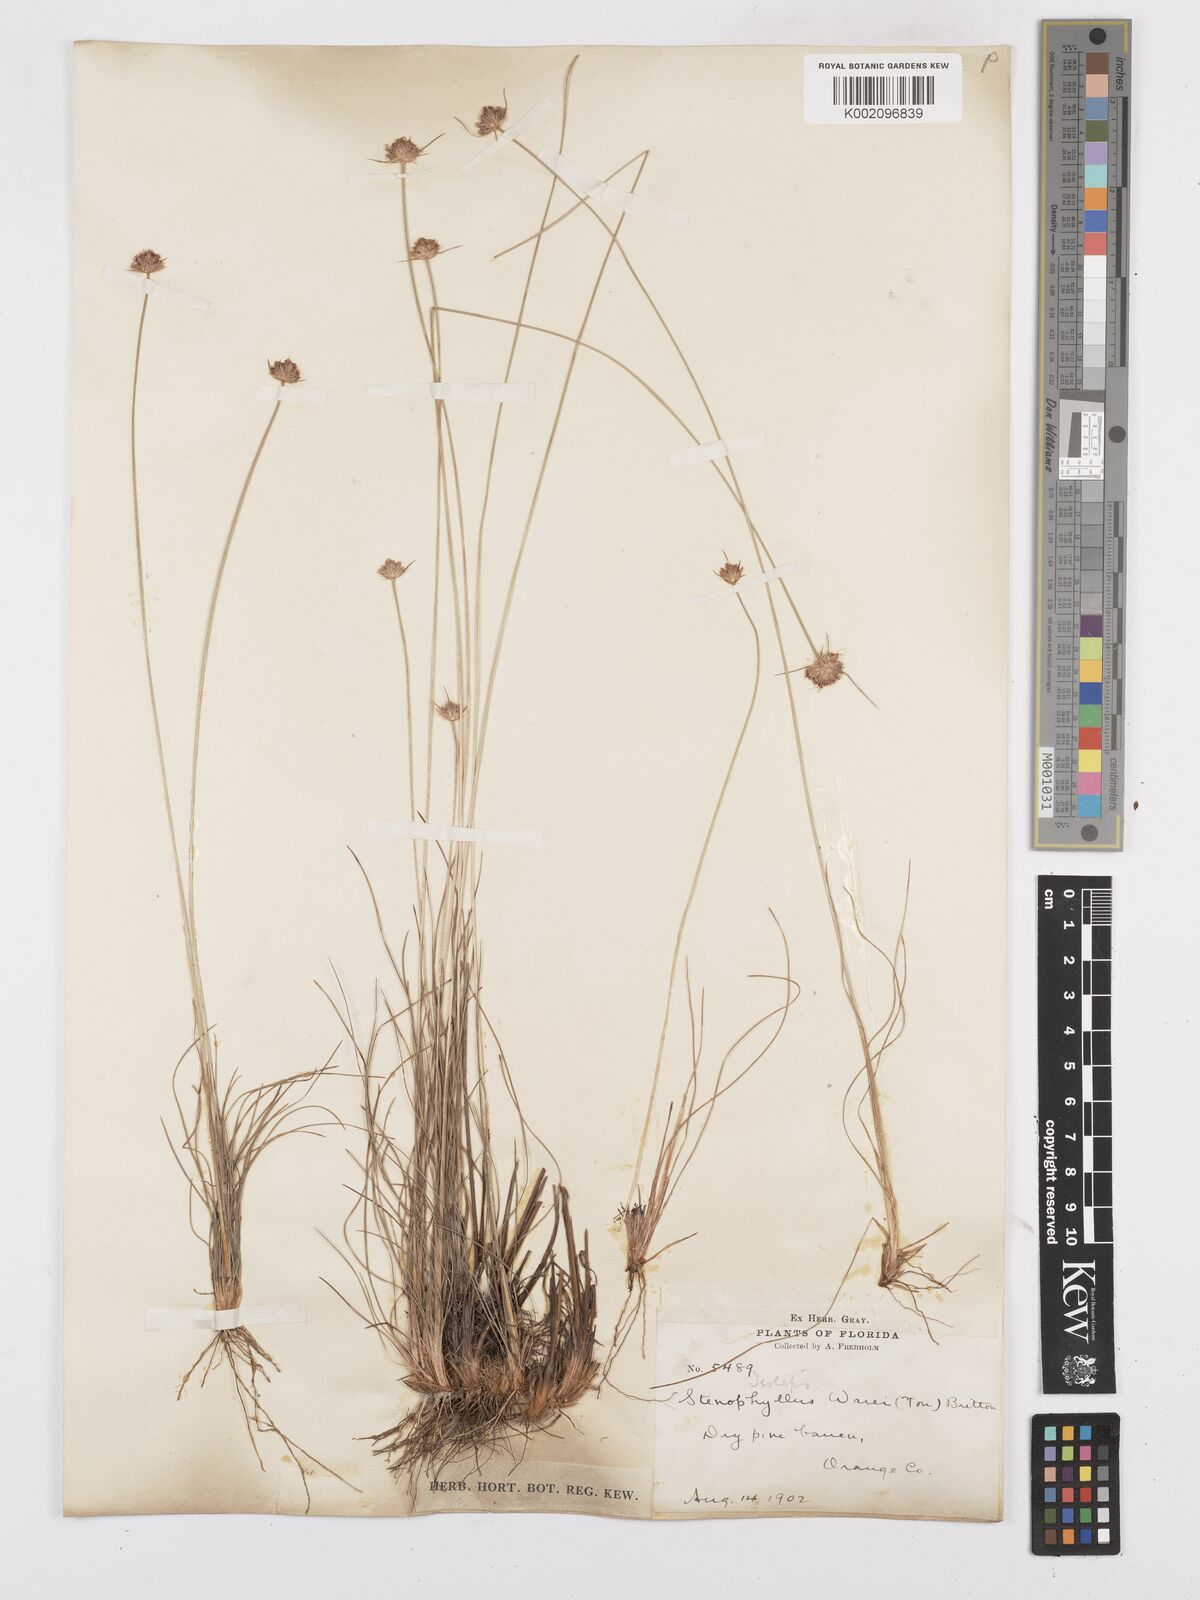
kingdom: Plantae
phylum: Tracheophyta
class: Liliopsida
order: Poales
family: Cyperaceae
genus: Bulbostylis
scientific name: Bulbostylis warei
